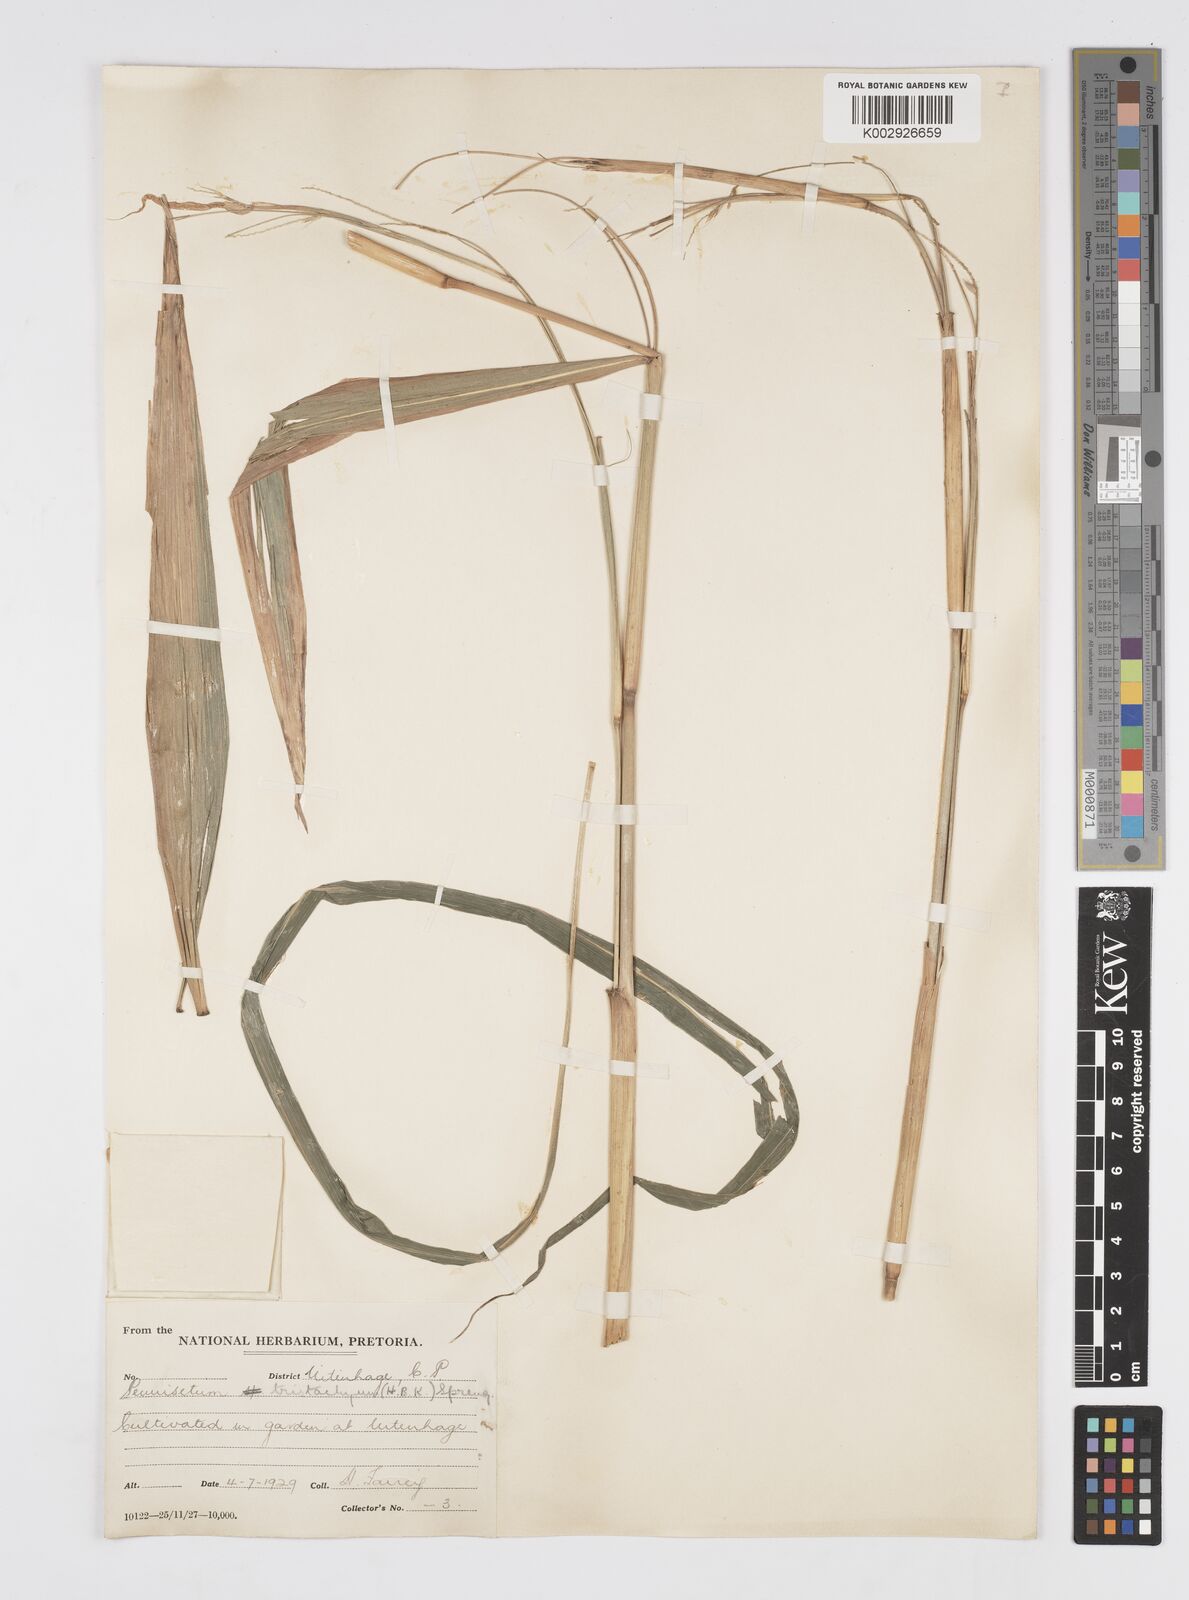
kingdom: Plantae
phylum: Tracheophyta
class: Liliopsida
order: Poales
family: Poaceae
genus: Cenchrus
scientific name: Cenchrus tristachyus
